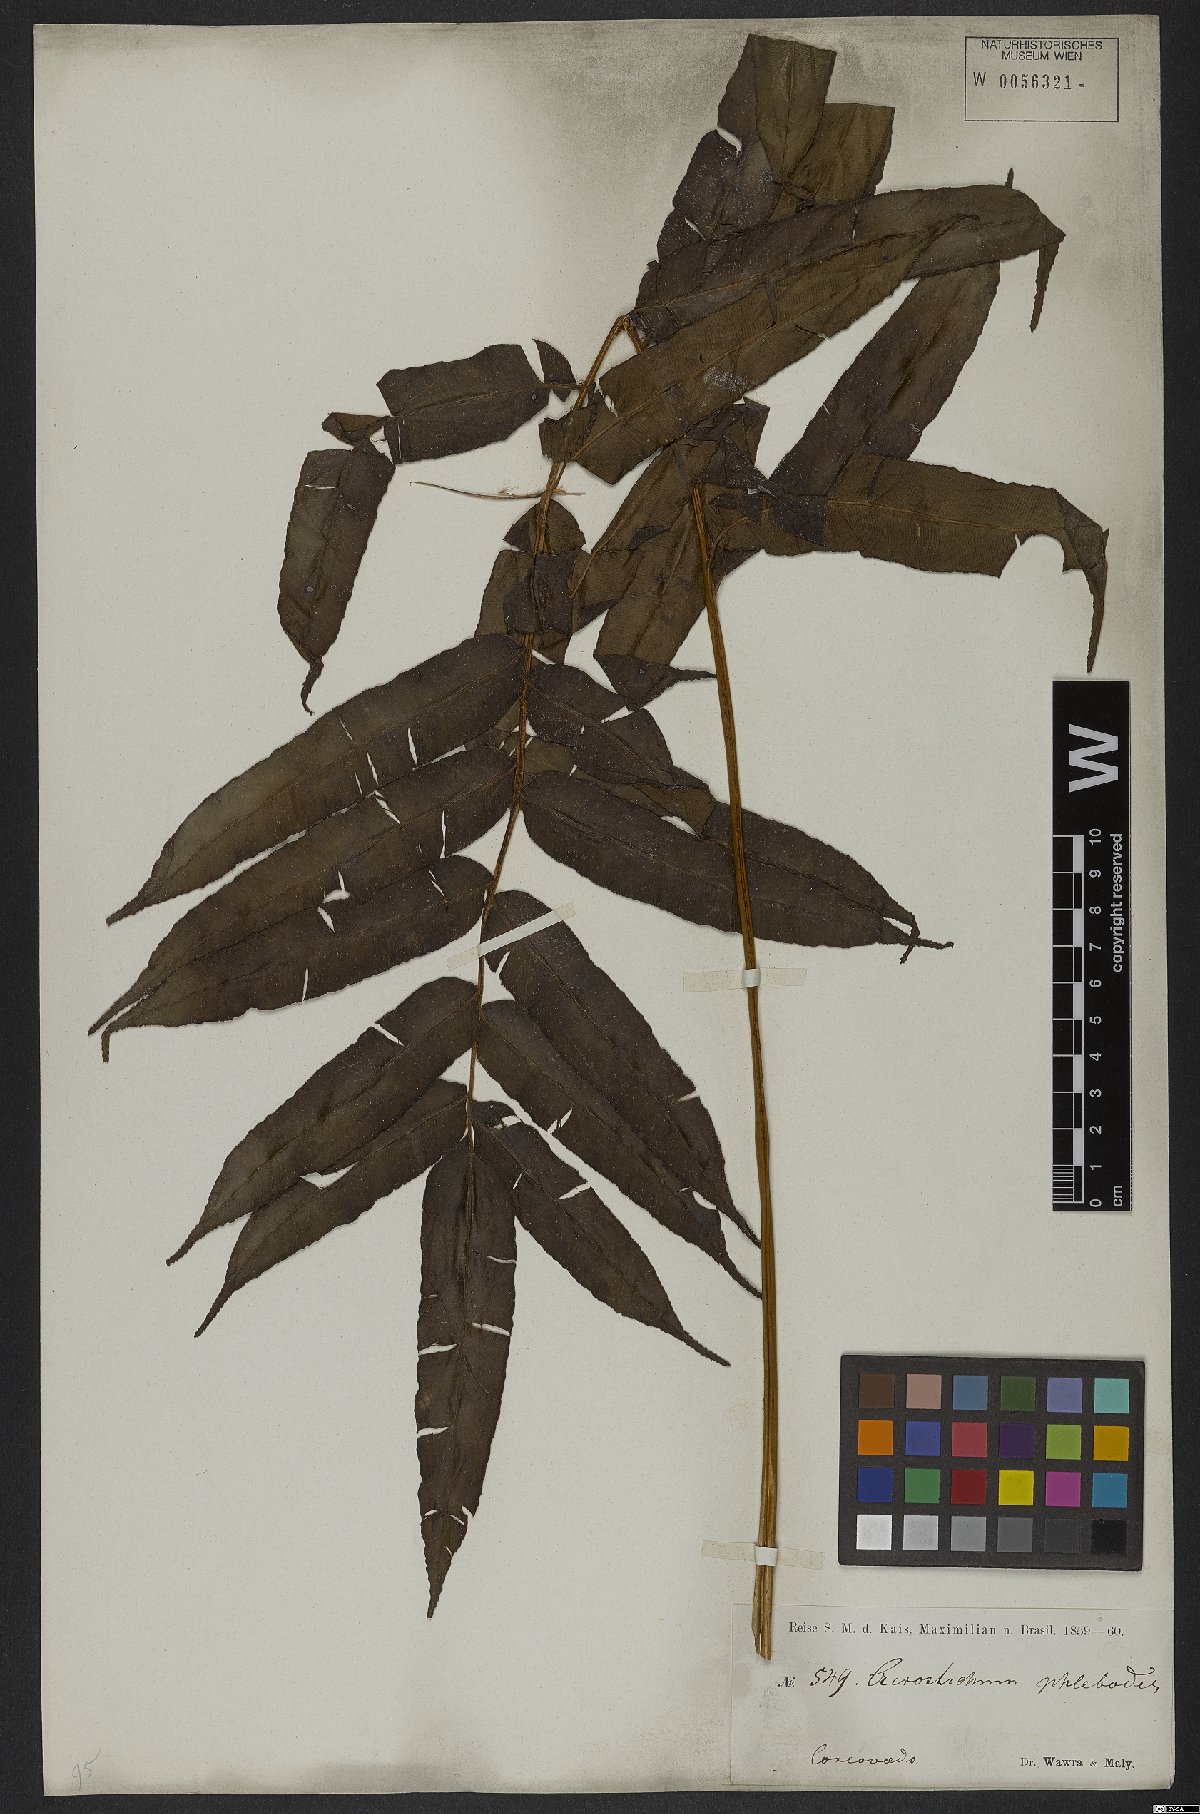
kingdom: Plantae
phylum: Tracheophyta
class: Polypodiopsida
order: Polypodiales
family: Lomariopsidaceae
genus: Lomariopsis
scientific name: Lomariopsis marginata
